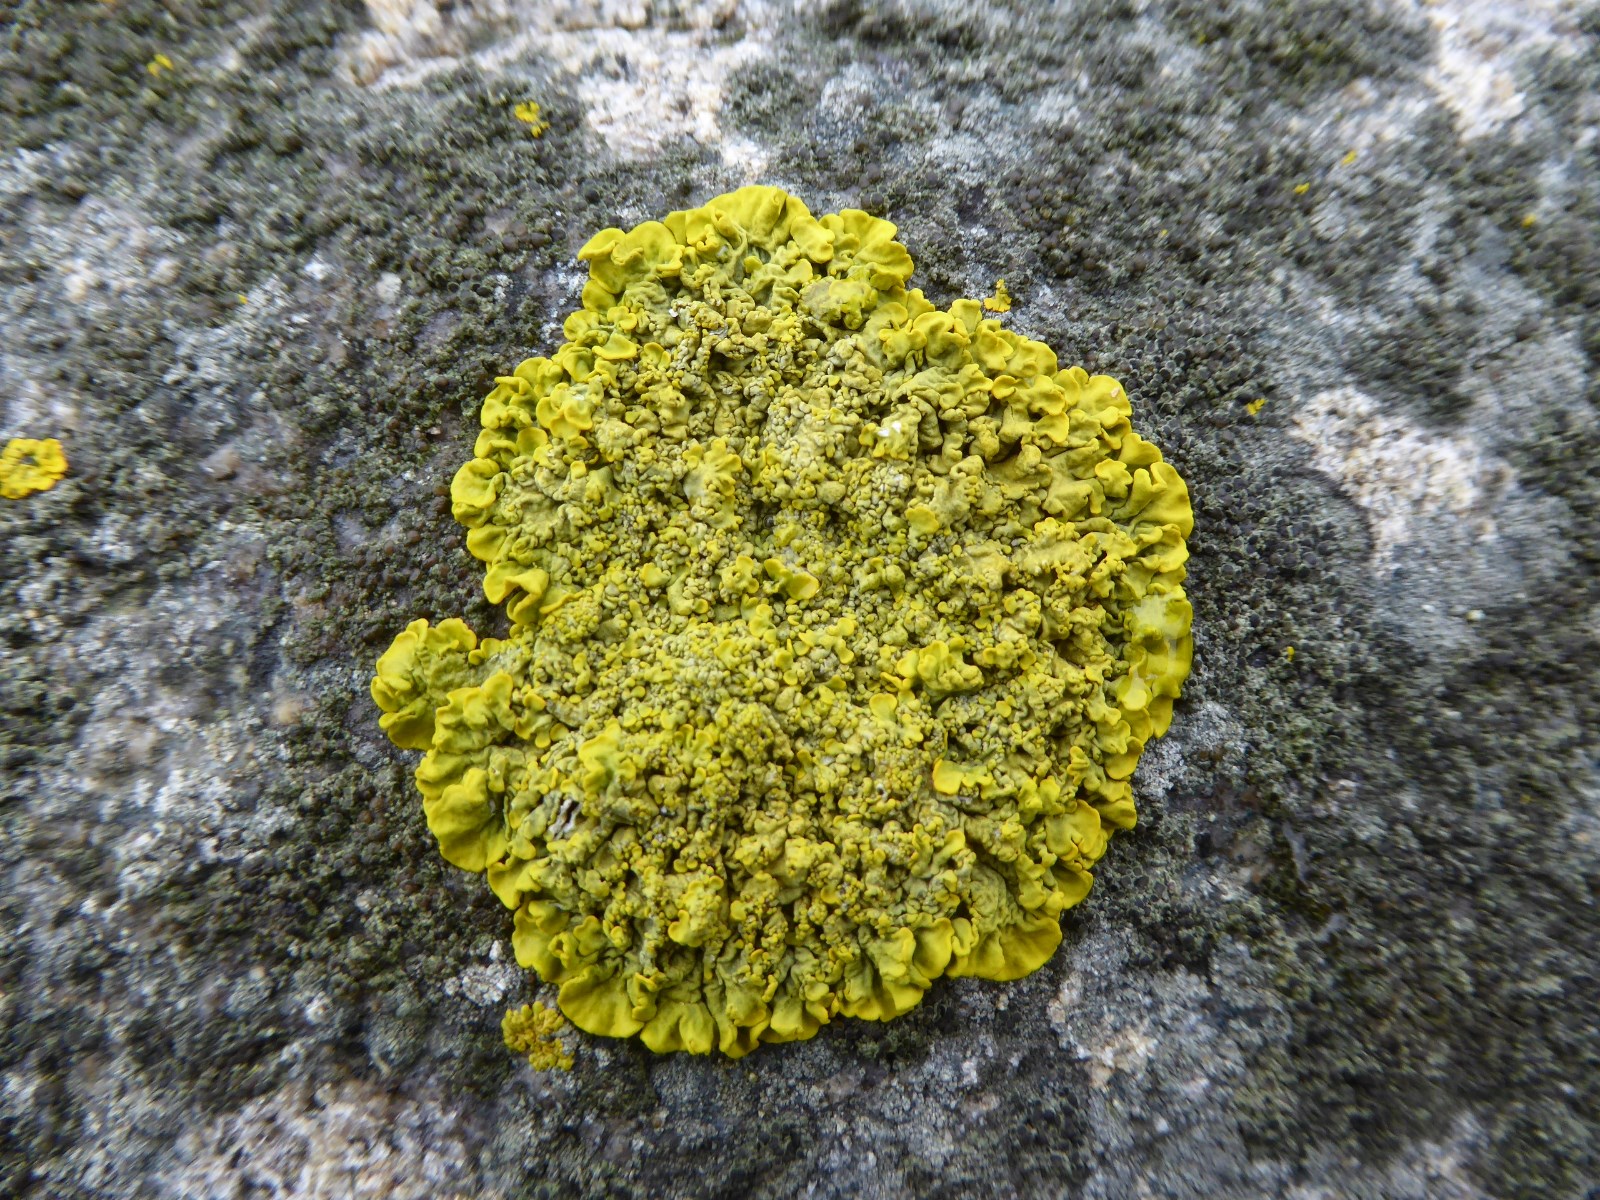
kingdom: Fungi
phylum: Ascomycota
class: Lecanoromycetes
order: Teloschistales
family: Teloschistaceae
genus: Xanthoria
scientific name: Xanthoria calcicola
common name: vortet væggelav
